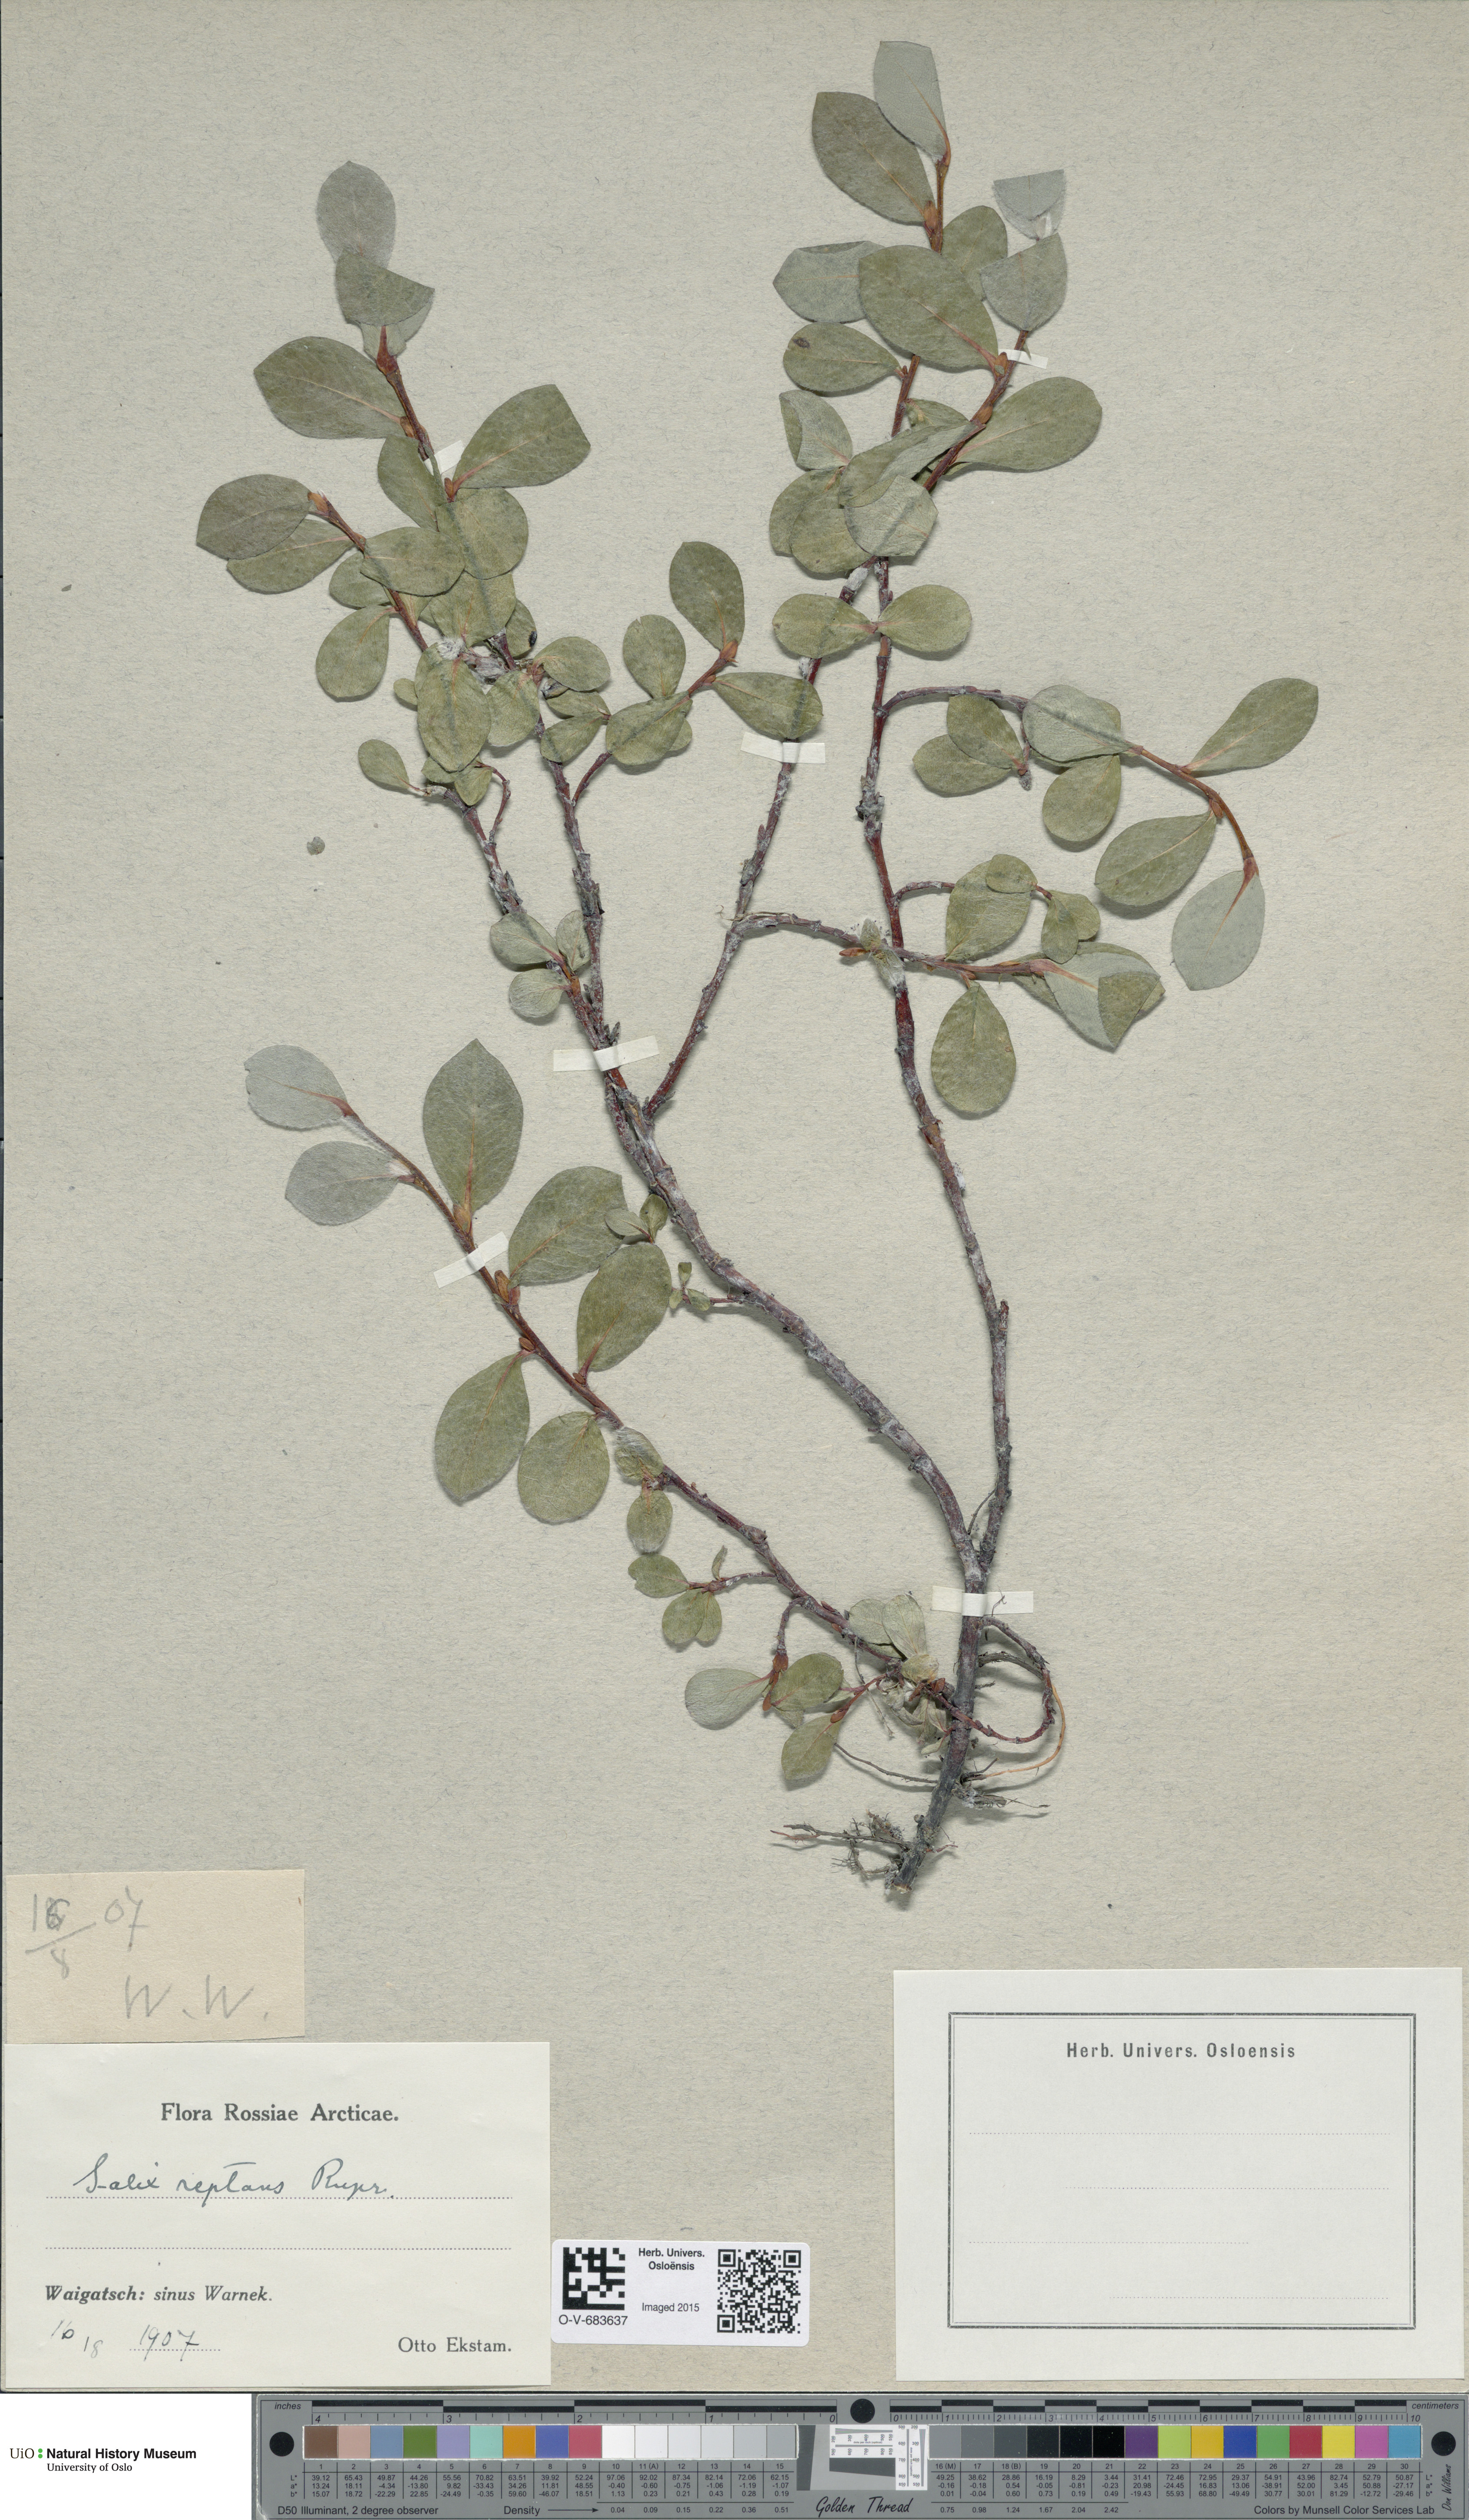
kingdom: Plantae
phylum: Tracheophyta
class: Magnoliopsida
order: Malpighiales
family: Salicaceae
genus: Salix
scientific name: Salix reptans
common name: Arctic creeping willow
